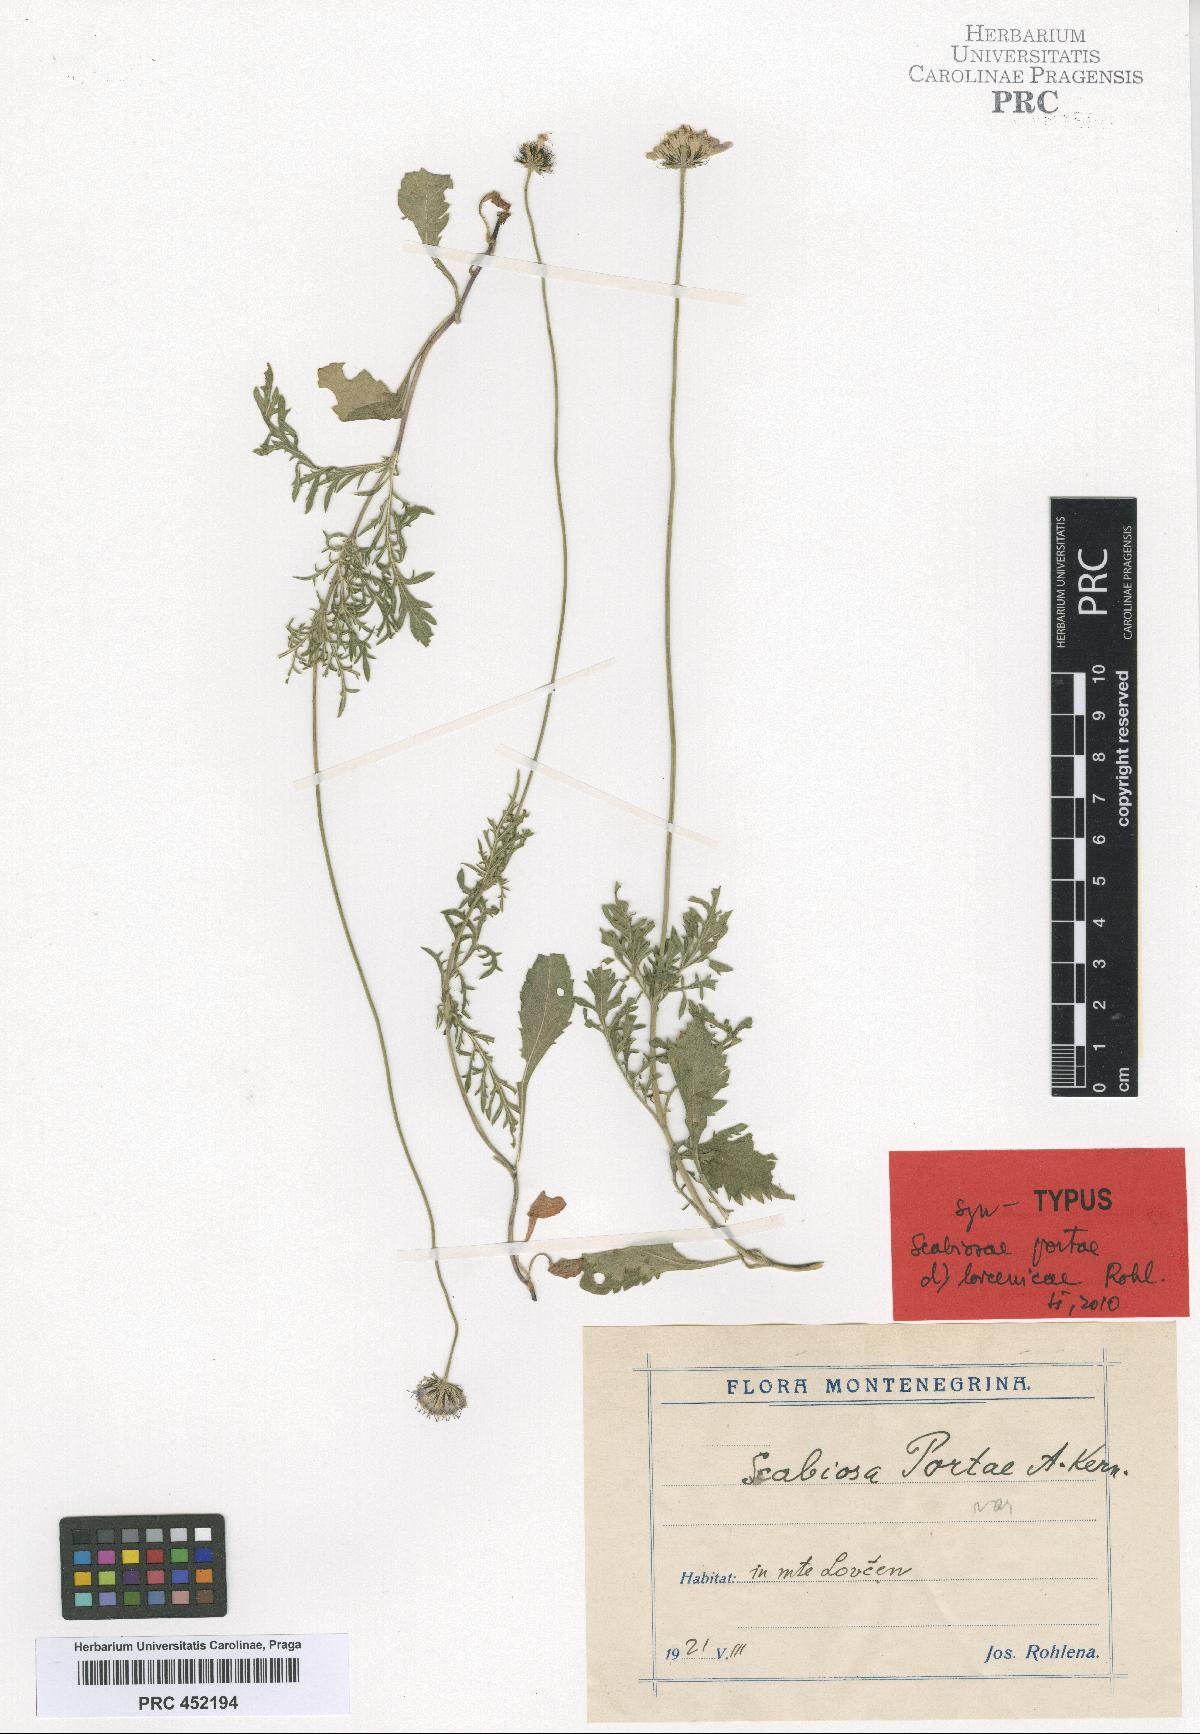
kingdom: Plantae
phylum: Tracheophyta
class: Magnoliopsida
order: Dipsacales
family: Caprifoliaceae
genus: Scabiosa
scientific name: Scabiosa taygetea
